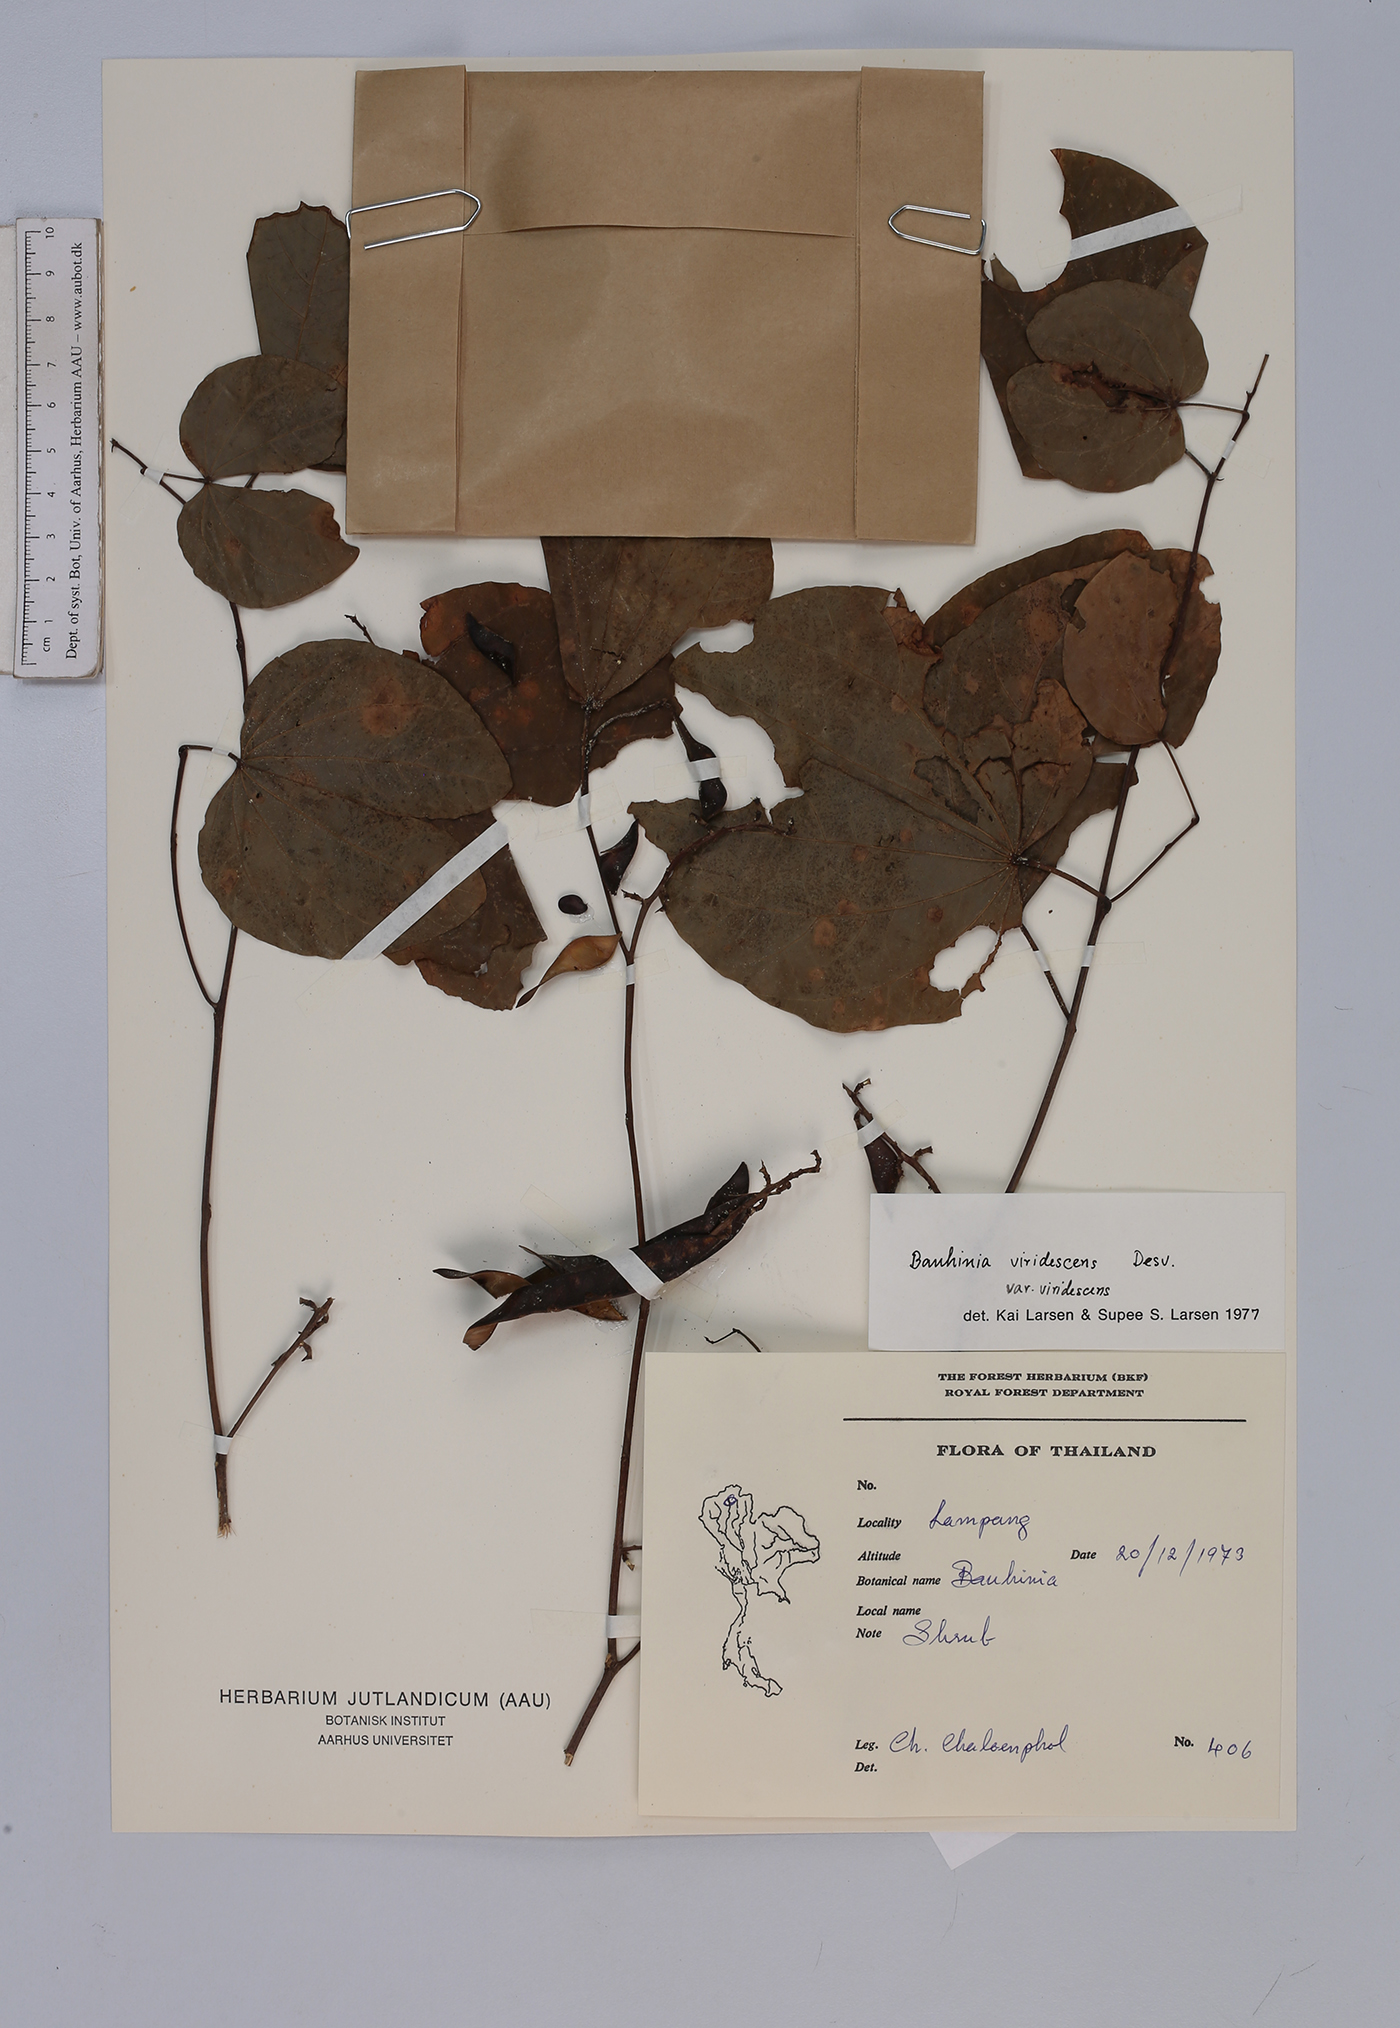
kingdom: Plantae
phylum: Tracheophyta
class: Magnoliopsida
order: Fabales
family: Fabaceae
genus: Bauhinia
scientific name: Bauhinia viridescens
